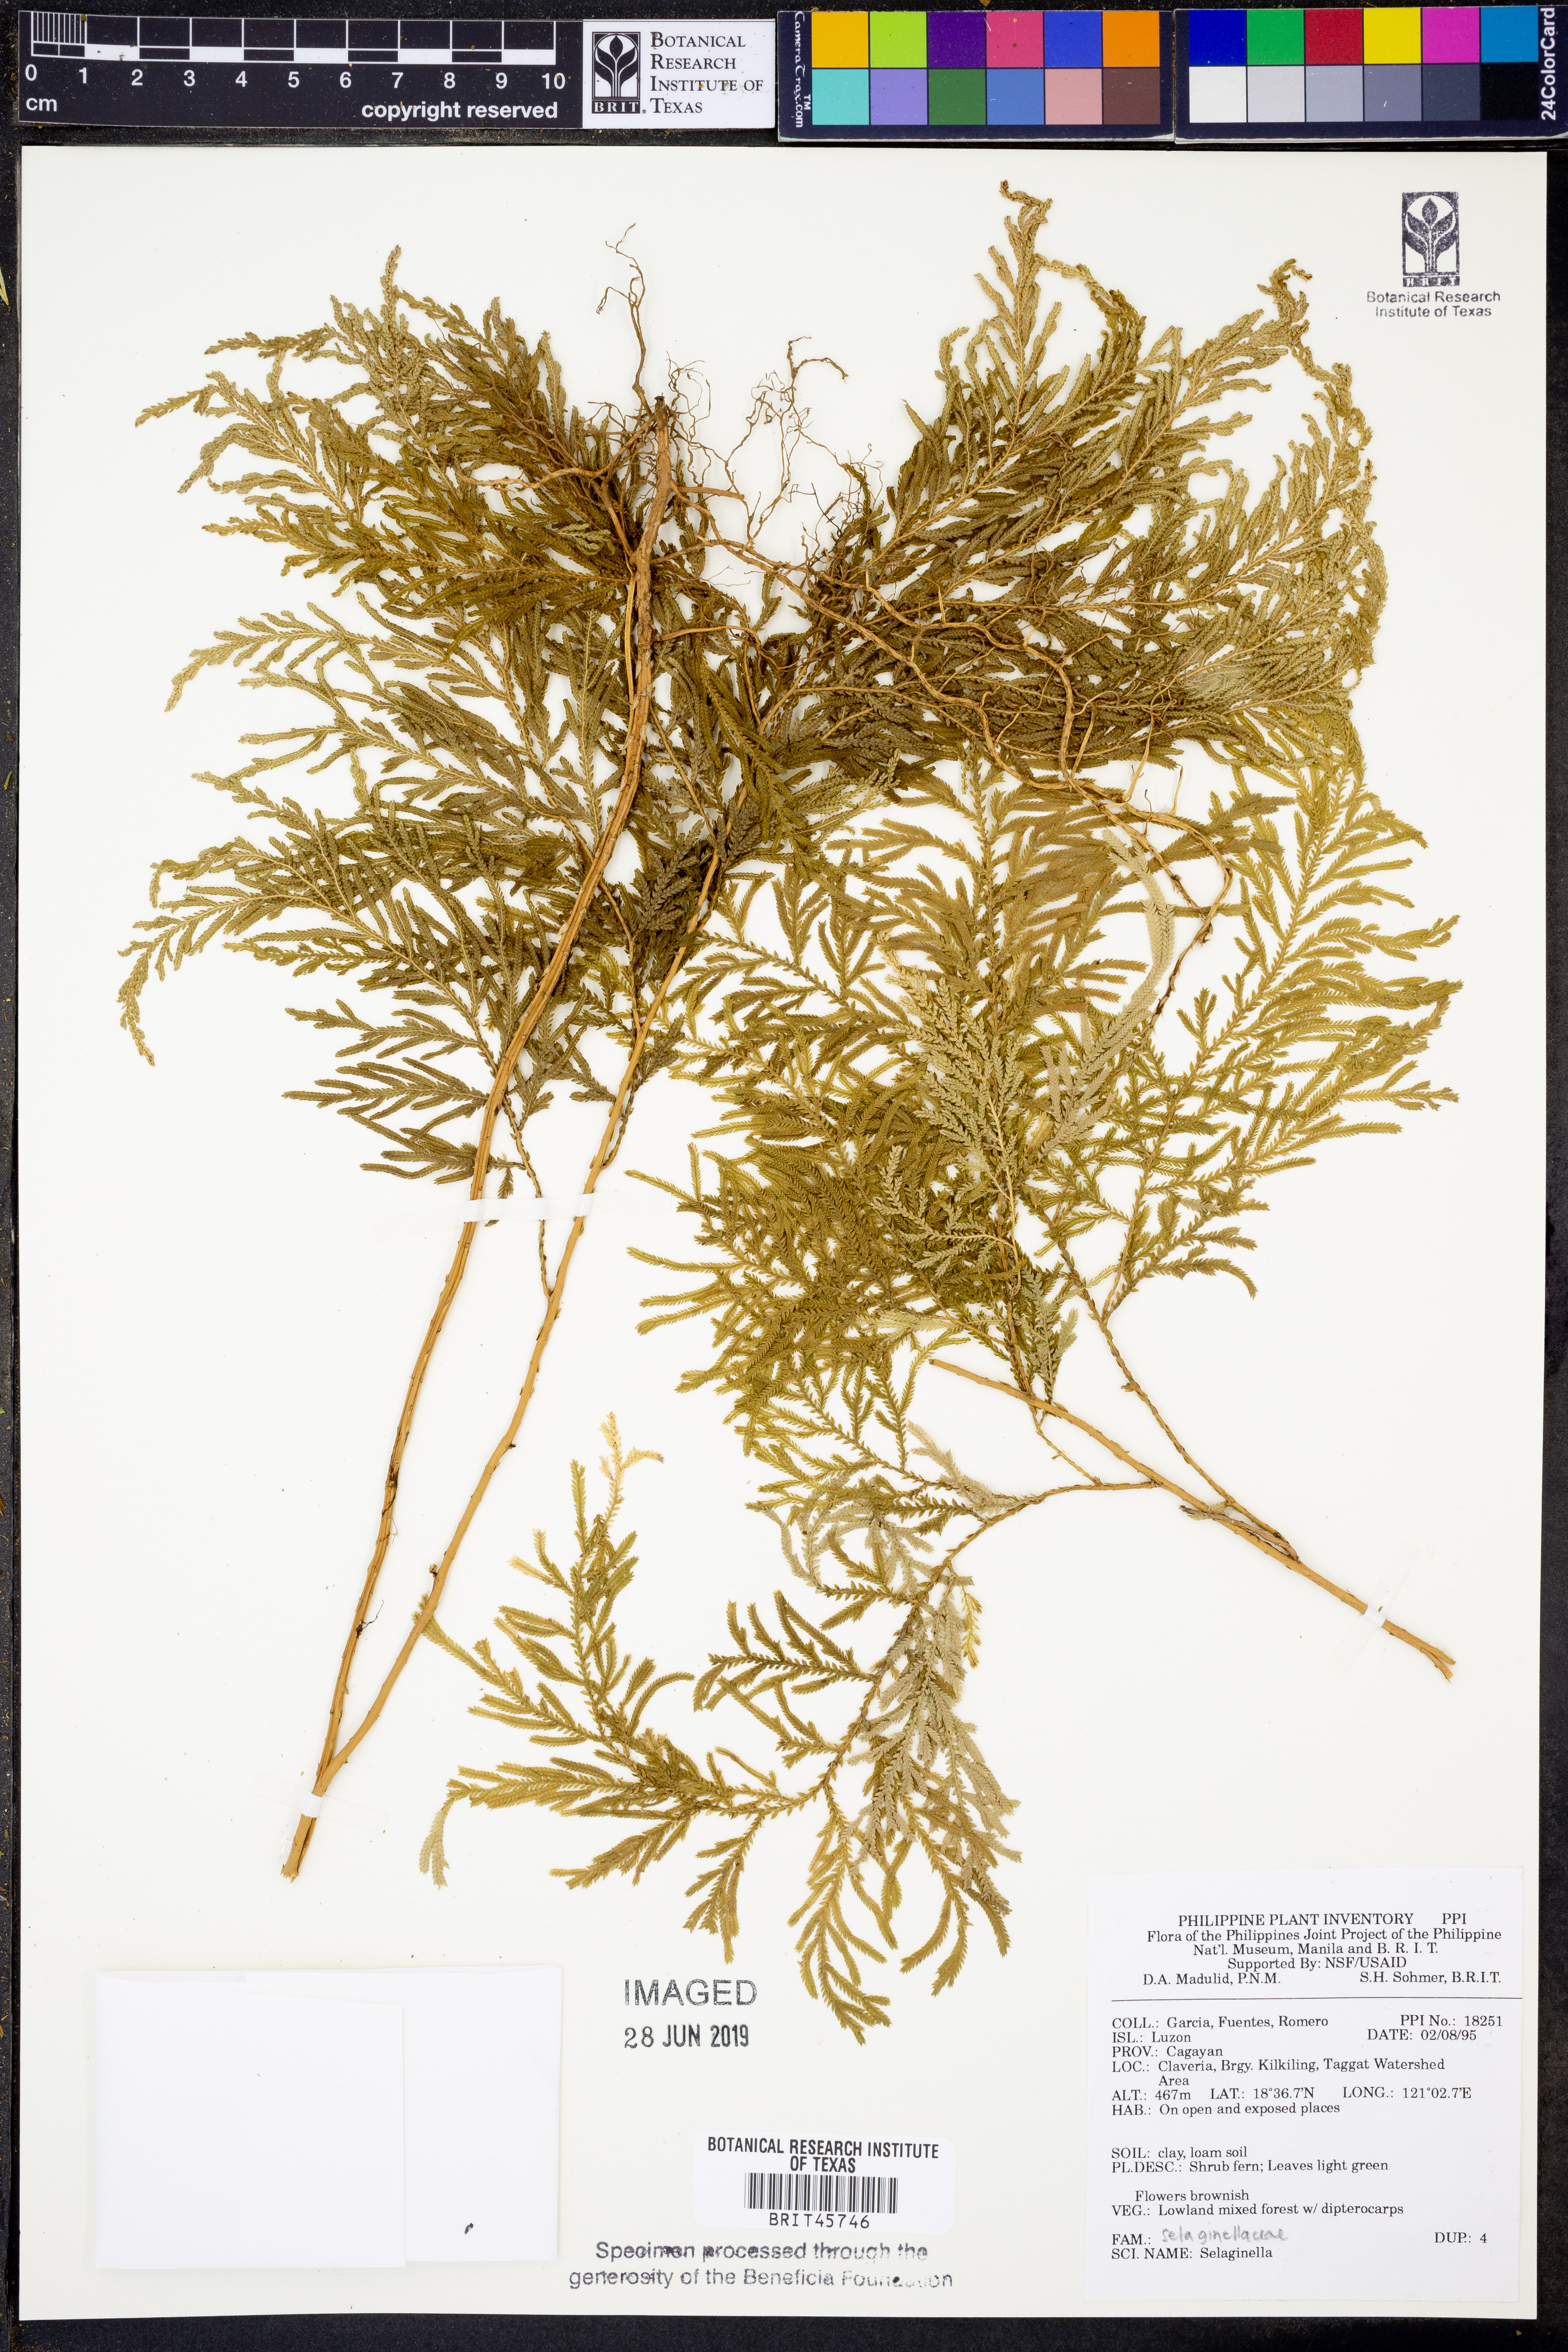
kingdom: Plantae
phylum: Tracheophyta
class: Lycopodiopsida
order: Selaginellales
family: Selaginellaceae
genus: Selaginella
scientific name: Selaginella
